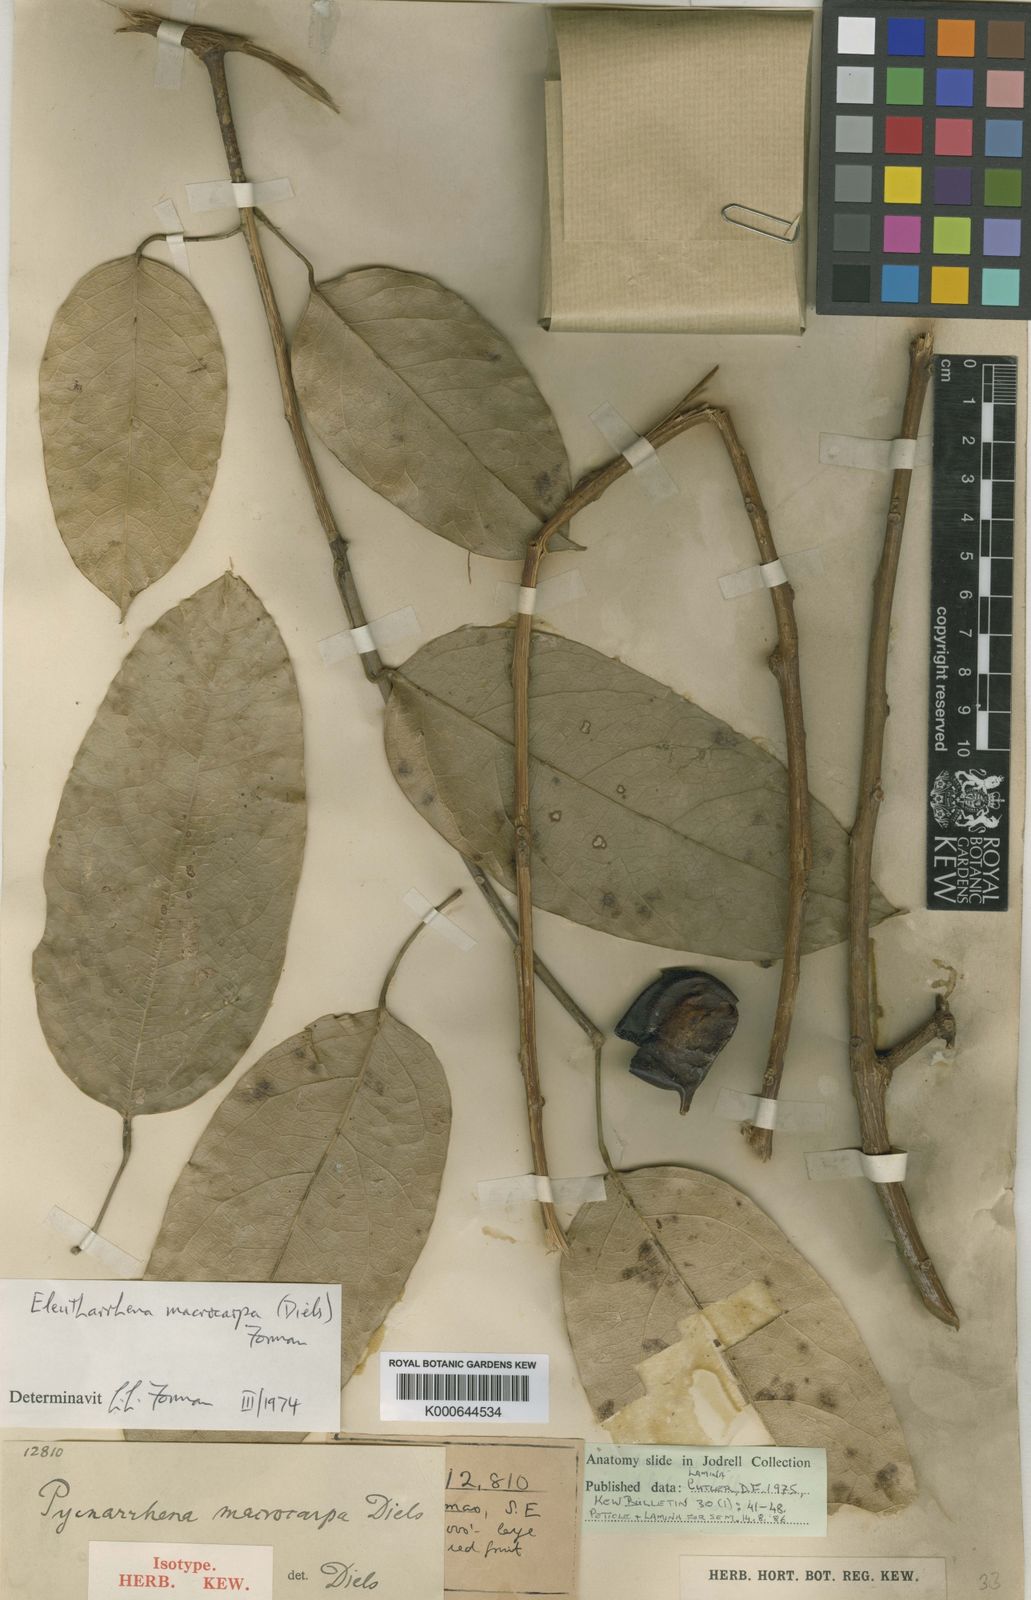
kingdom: Plantae
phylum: Tracheophyta
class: Magnoliopsida
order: Ranunculales
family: Menispermaceae
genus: Eleutharrhena
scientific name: Eleutharrhena
